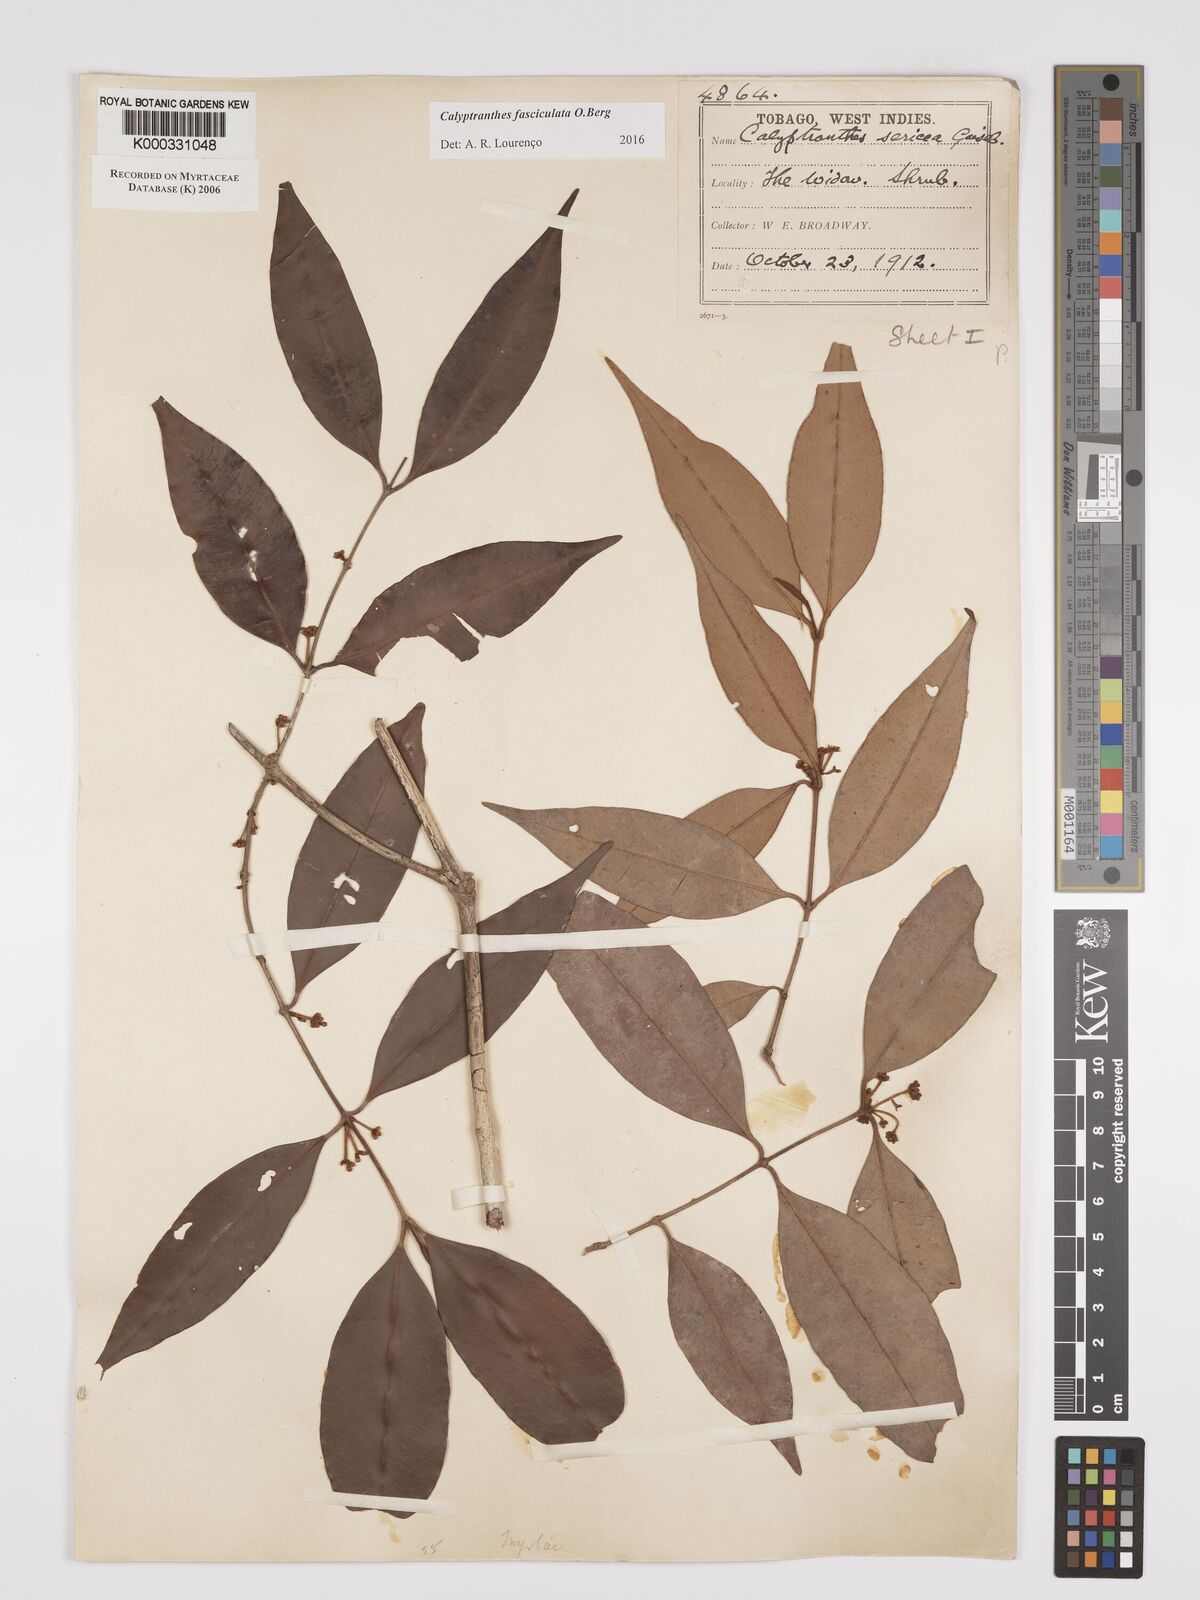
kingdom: Plantae
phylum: Tracheophyta
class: Magnoliopsida
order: Myrtales
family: Myrtaceae
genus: Myrcia
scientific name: Myrcia fasciculata
